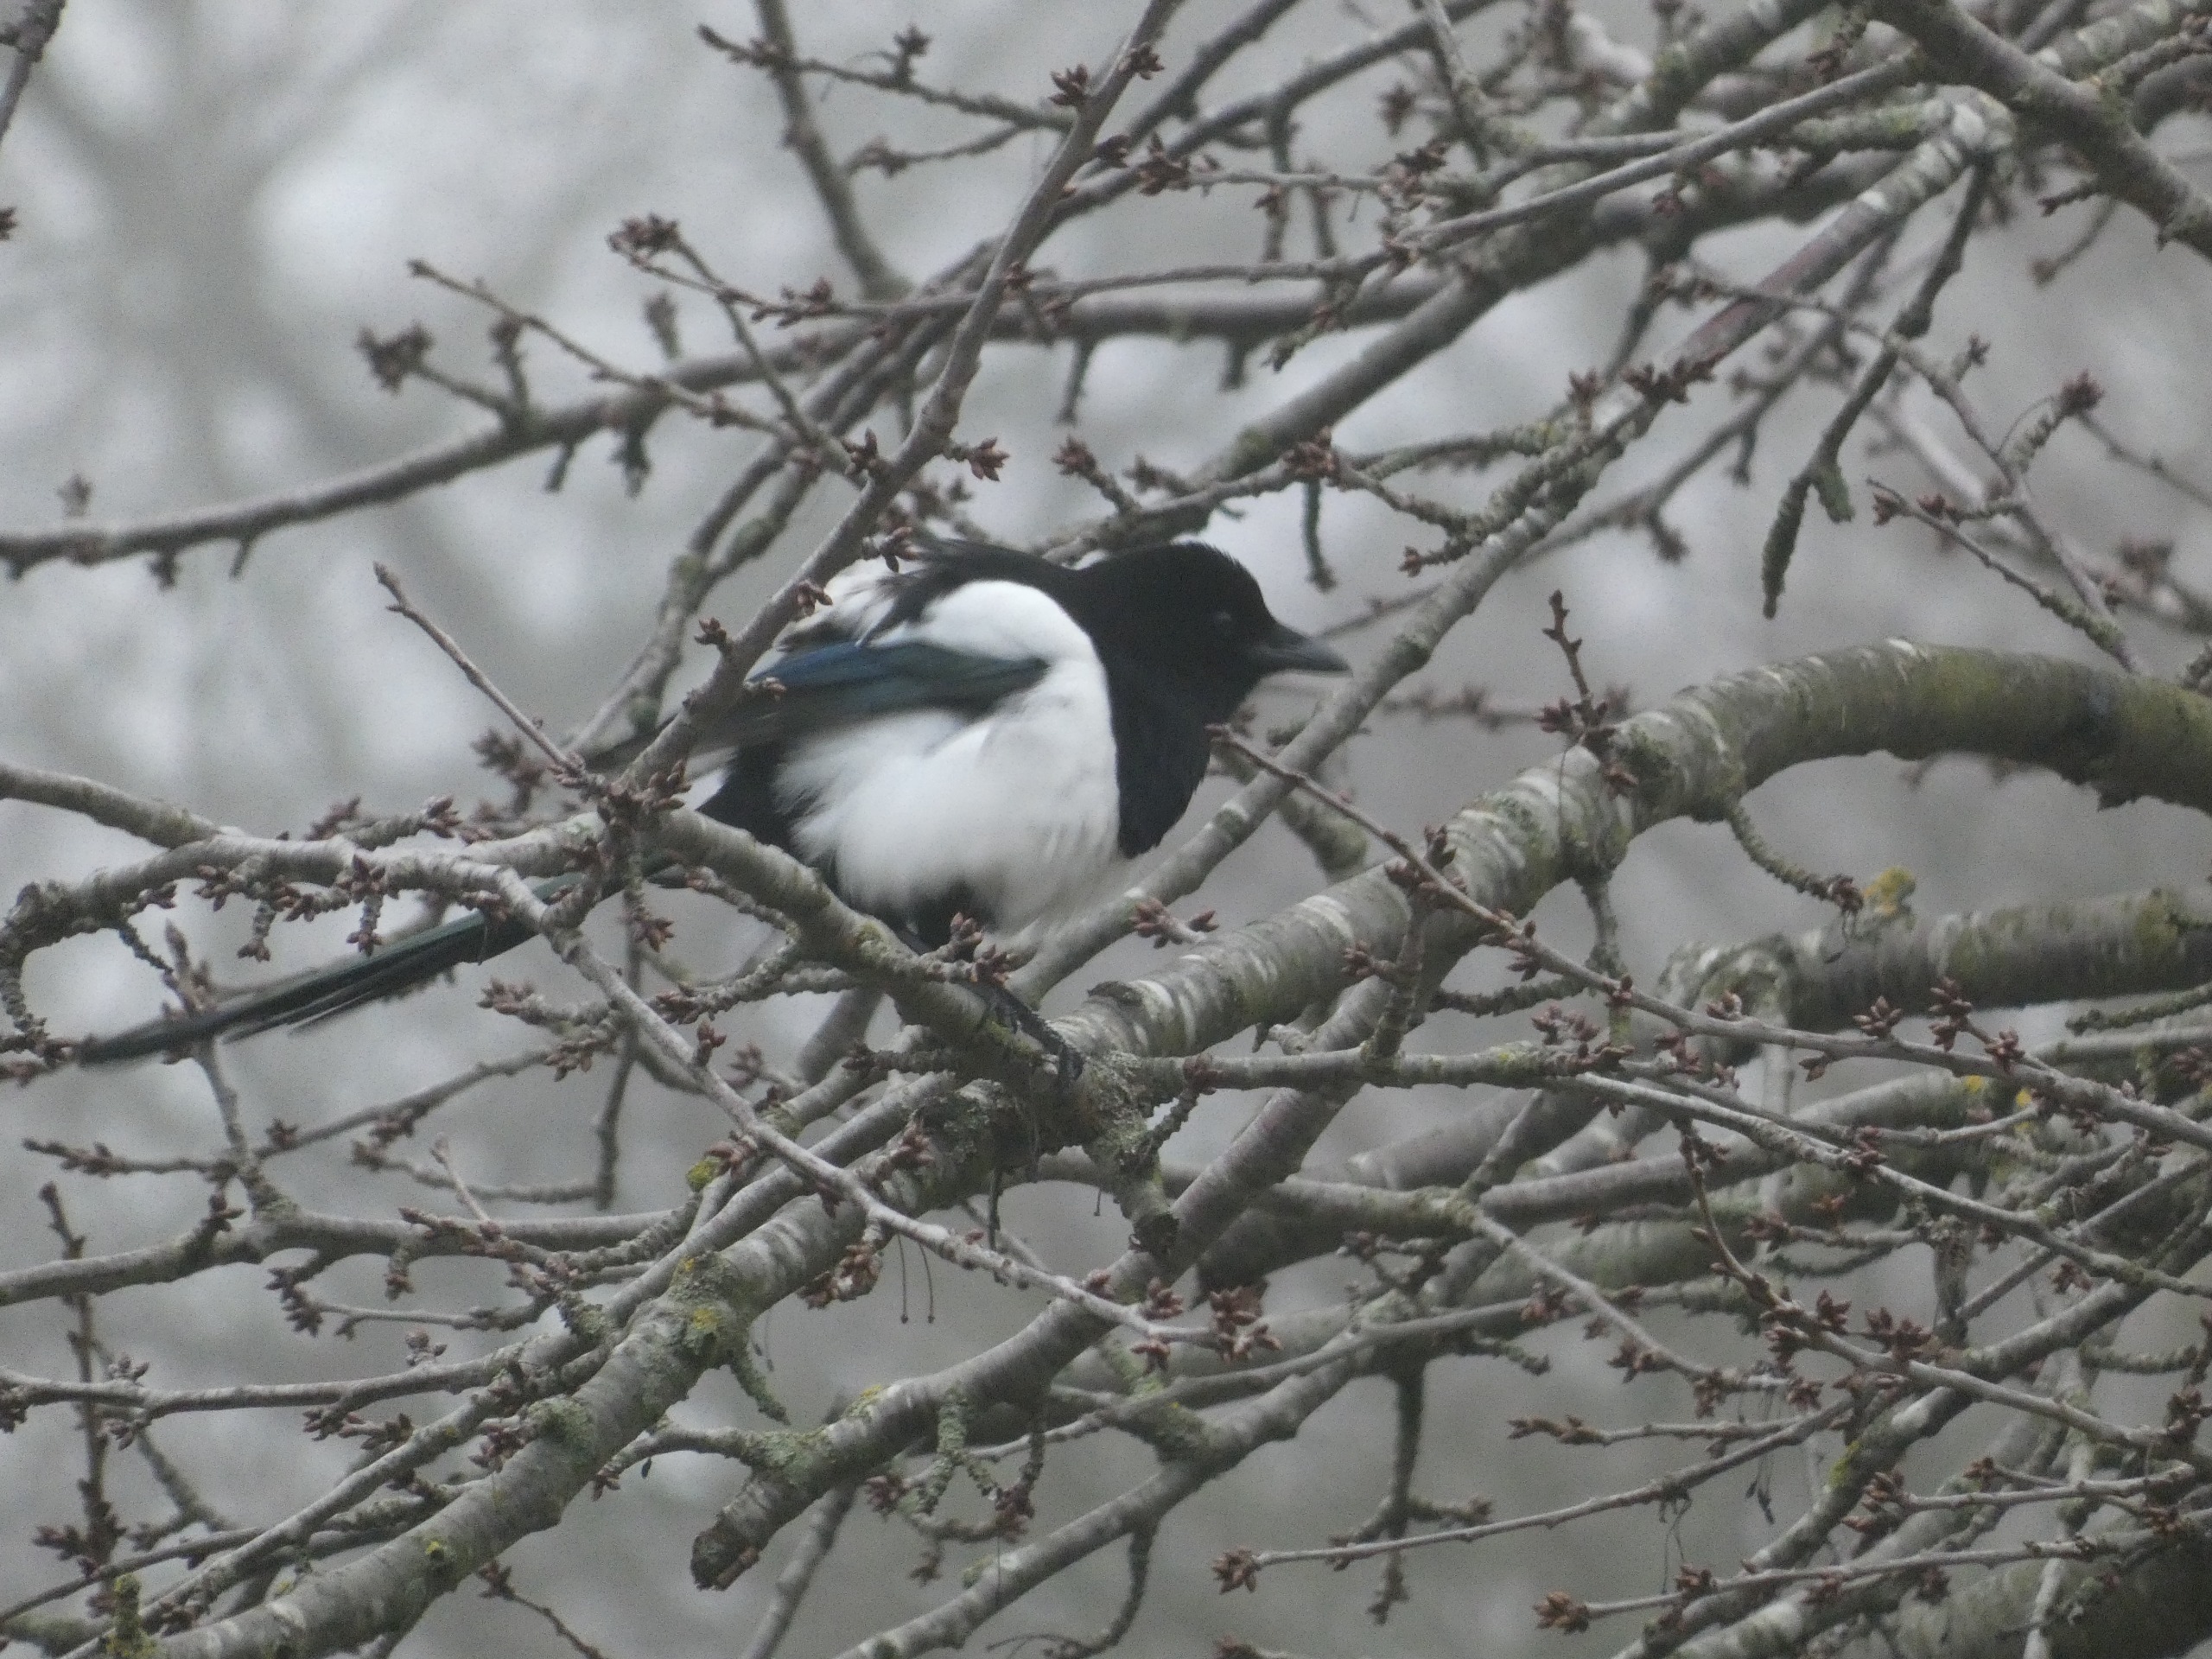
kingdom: Animalia
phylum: Chordata
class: Aves
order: Passeriformes
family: Corvidae
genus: Pica
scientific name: Pica pica
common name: Husskade
